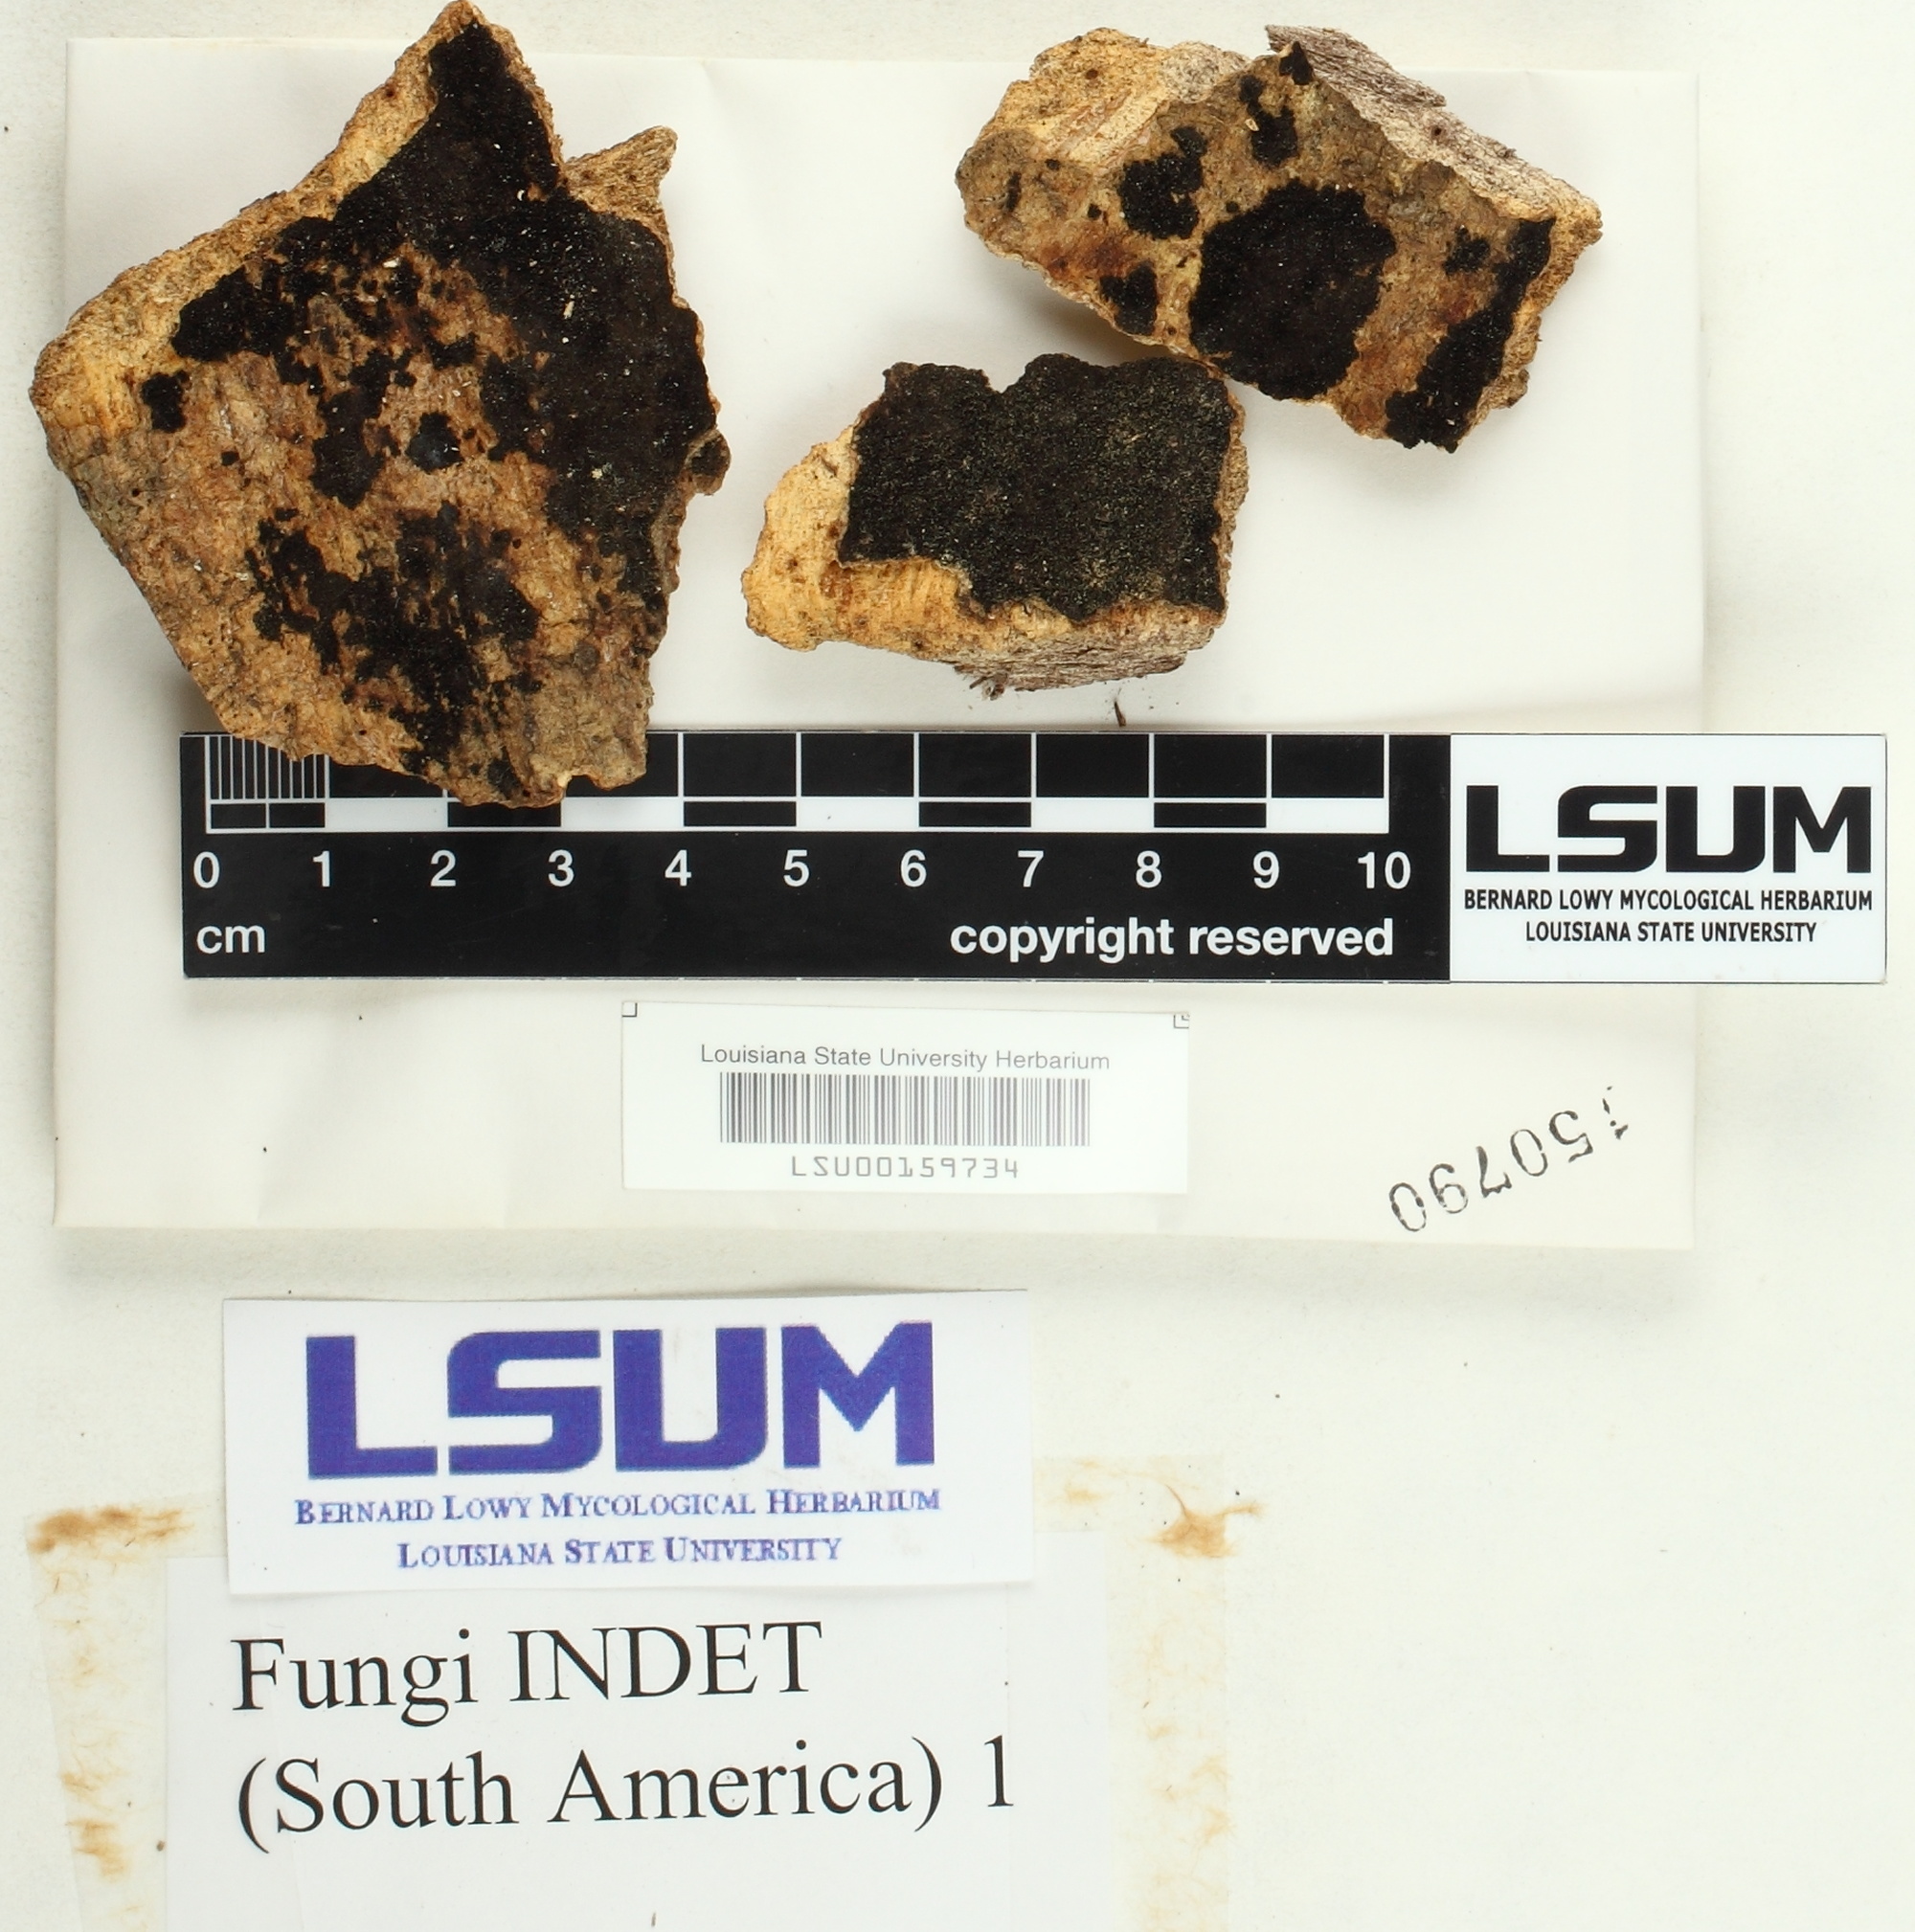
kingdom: Fungi
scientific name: Fungi
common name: Fungi
